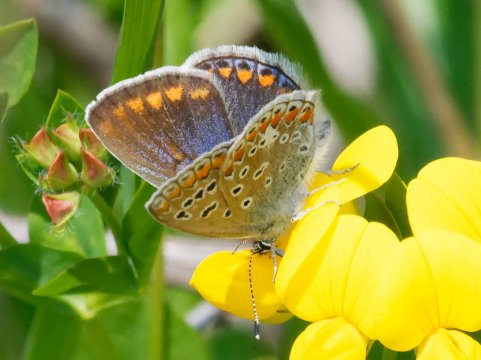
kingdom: Animalia
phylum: Arthropoda
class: Insecta
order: Lepidoptera
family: Lycaenidae
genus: Polyommatus
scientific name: Polyommatus icarus
